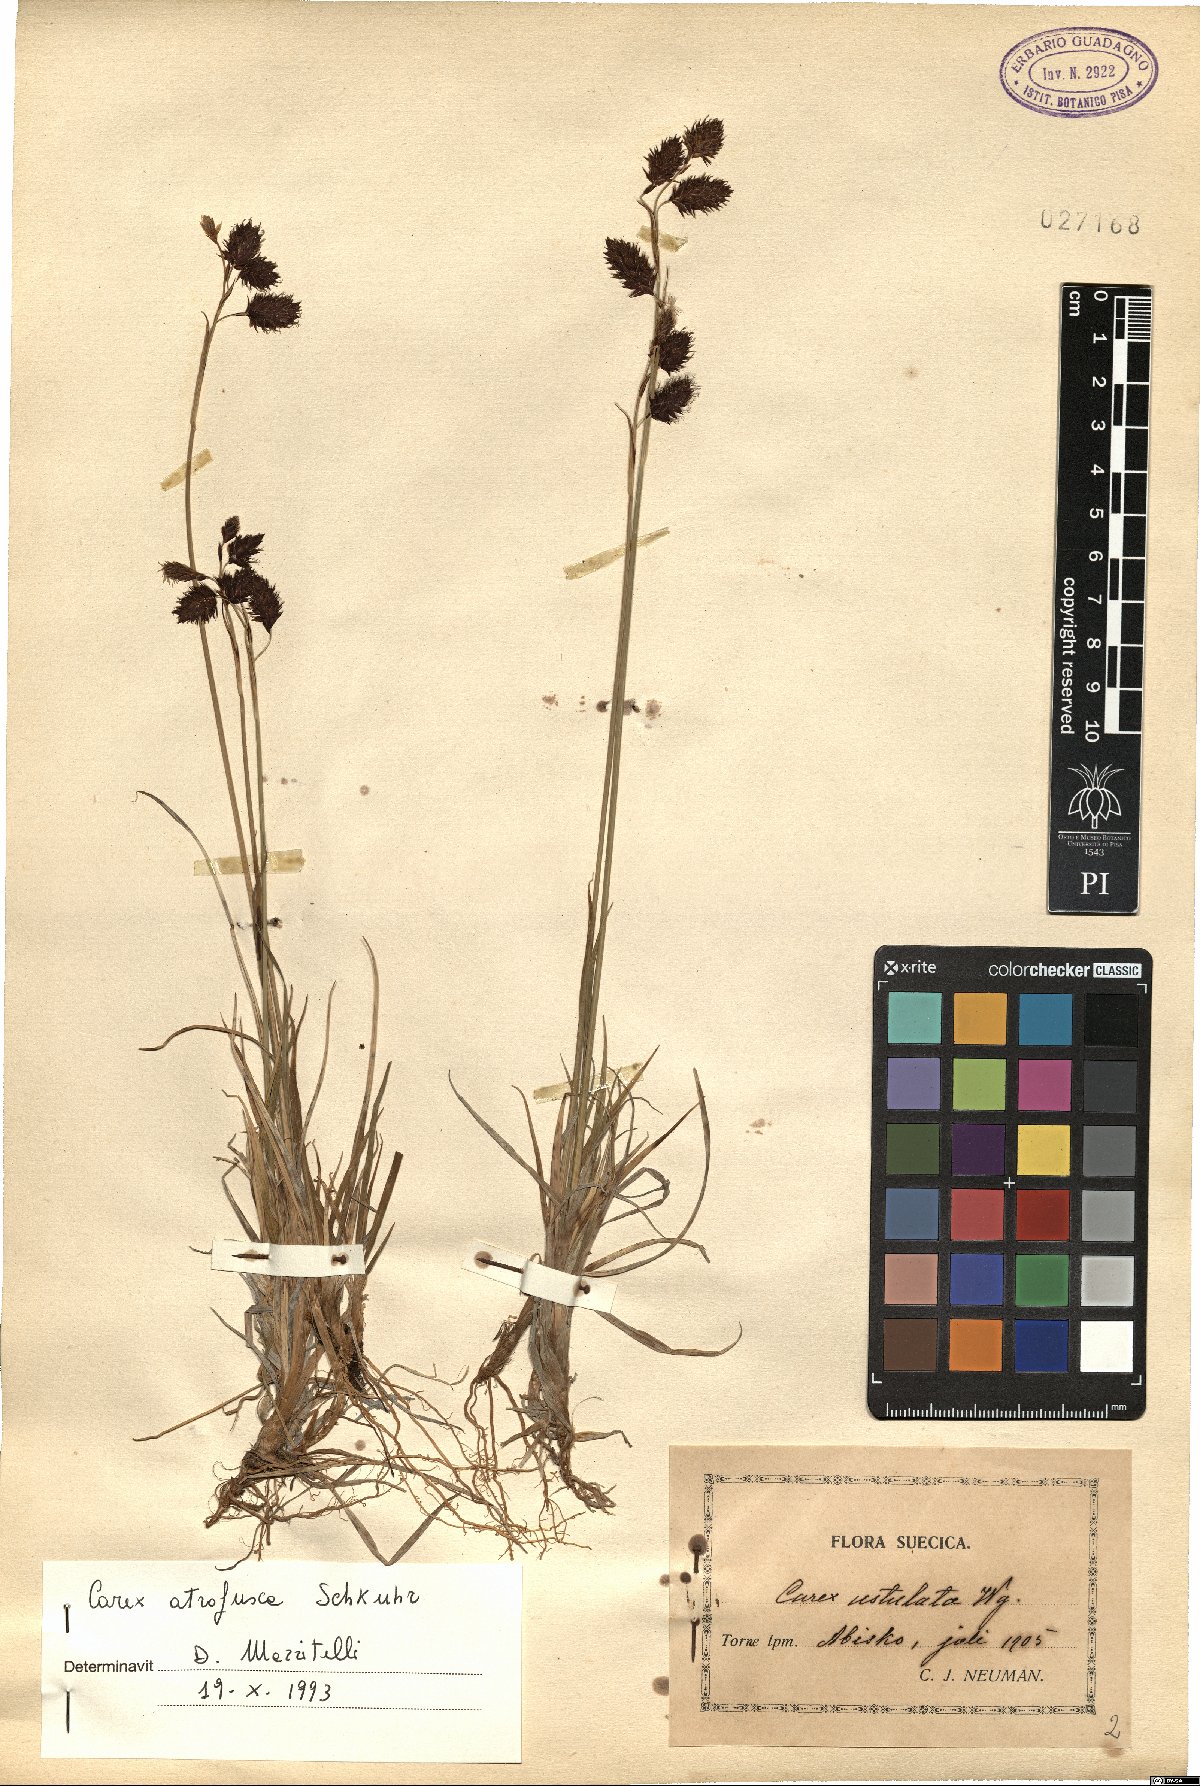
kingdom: Plantae
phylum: Tracheophyta
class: Liliopsida
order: Poales
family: Cyperaceae
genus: Carex
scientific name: Carex atrofusca
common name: Scorched alpine-sedge
